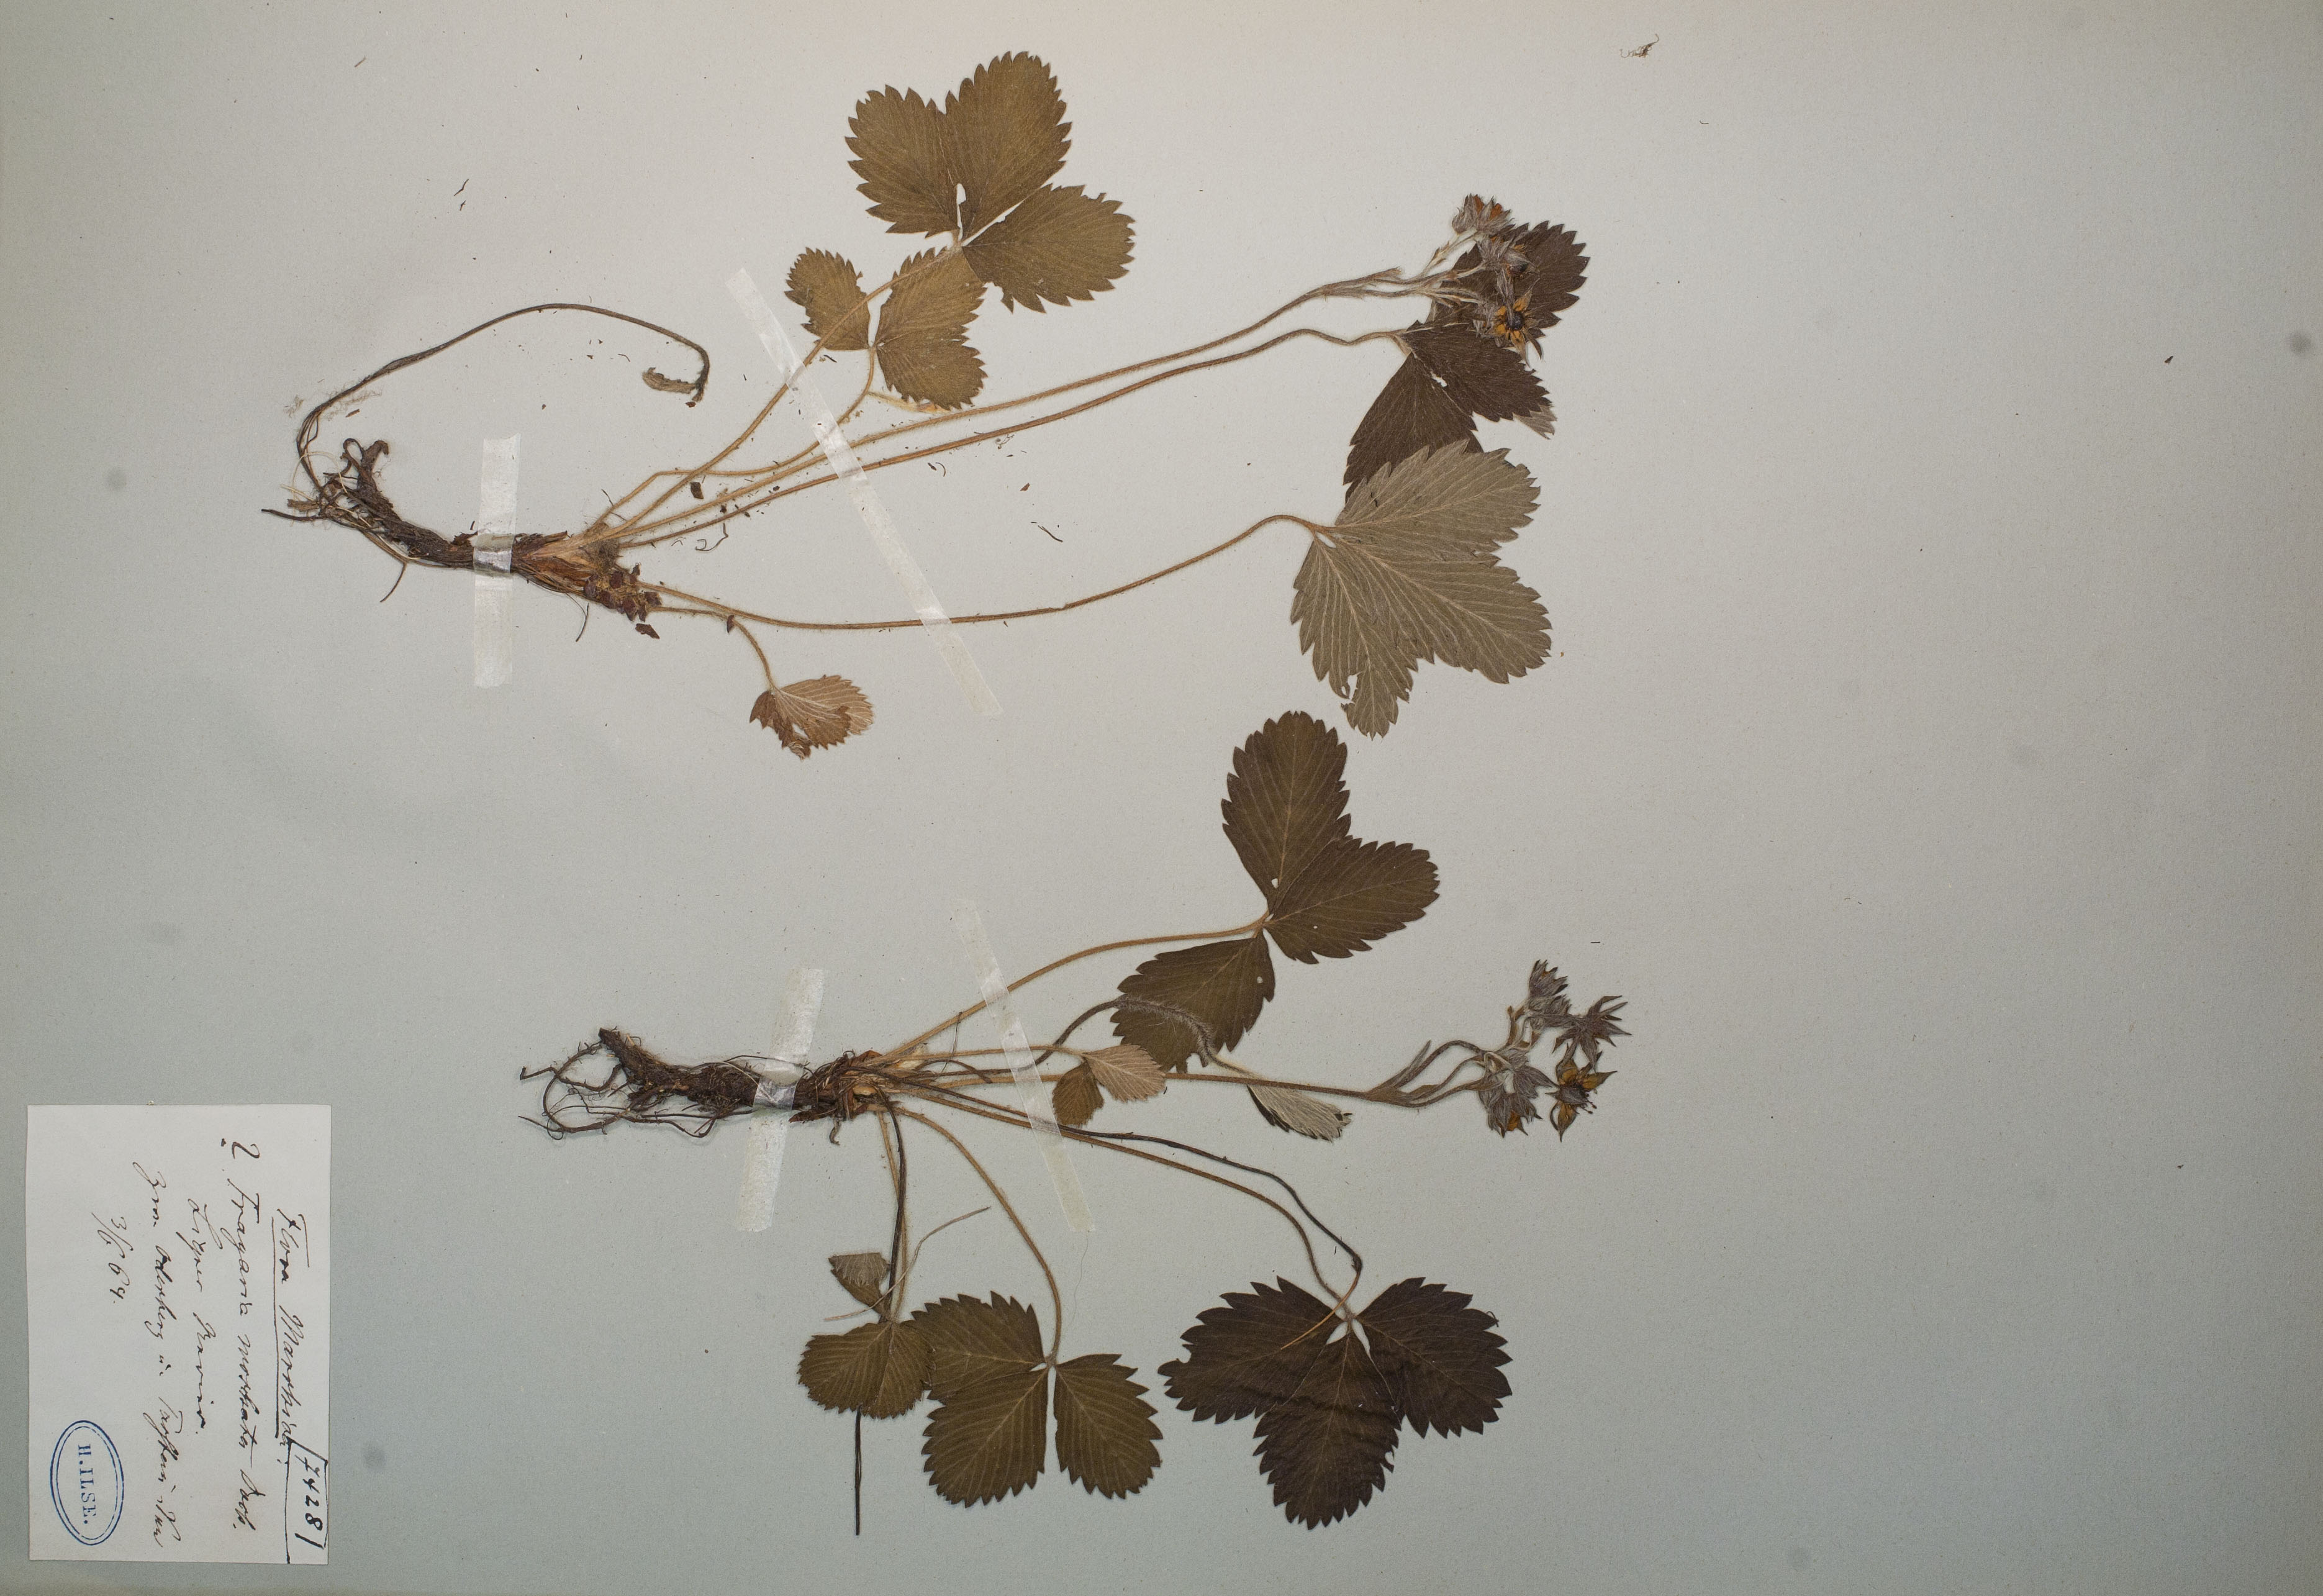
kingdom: Plantae
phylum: Tracheophyta
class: Magnoliopsida
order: Rosales
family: Rosaceae
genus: Fragaria
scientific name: Fragaria moschata
